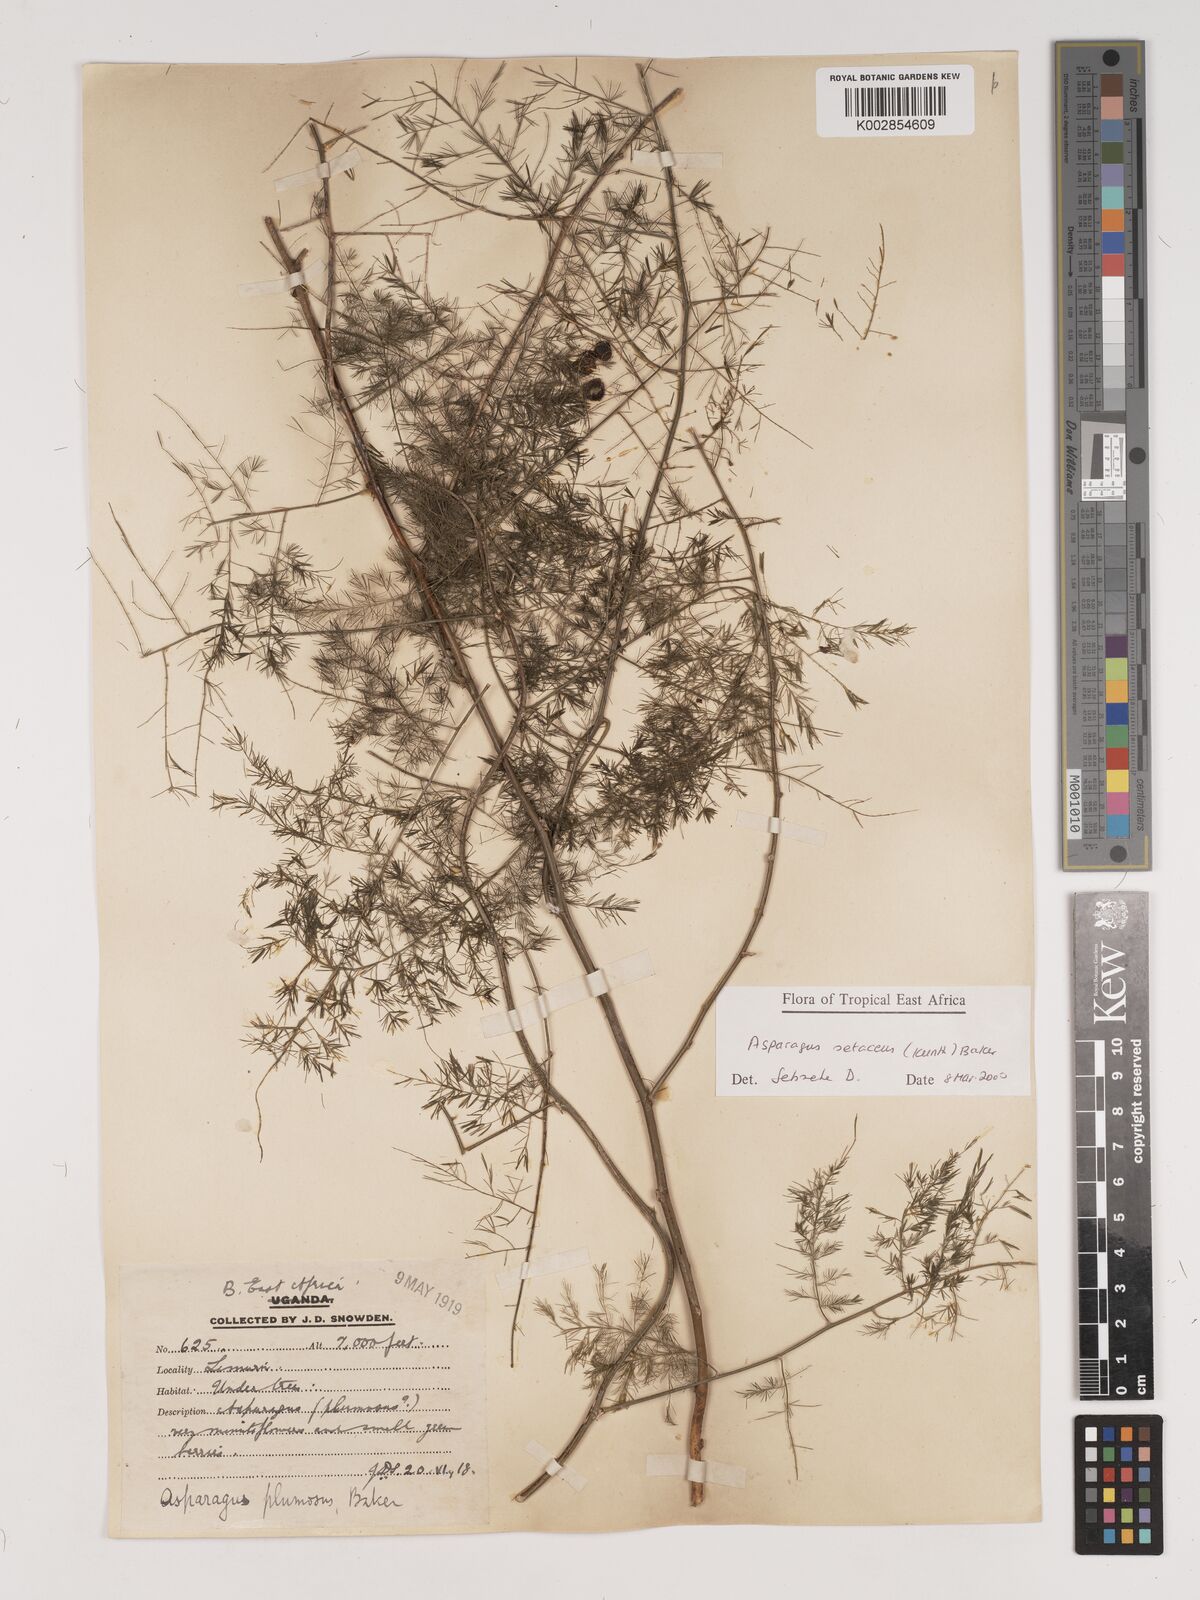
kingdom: Plantae
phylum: Tracheophyta
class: Liliopsida
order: Asparagales
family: Asparagaceae
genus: Asparagus
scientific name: Asparagus setaceus
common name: Common asparagus fern
